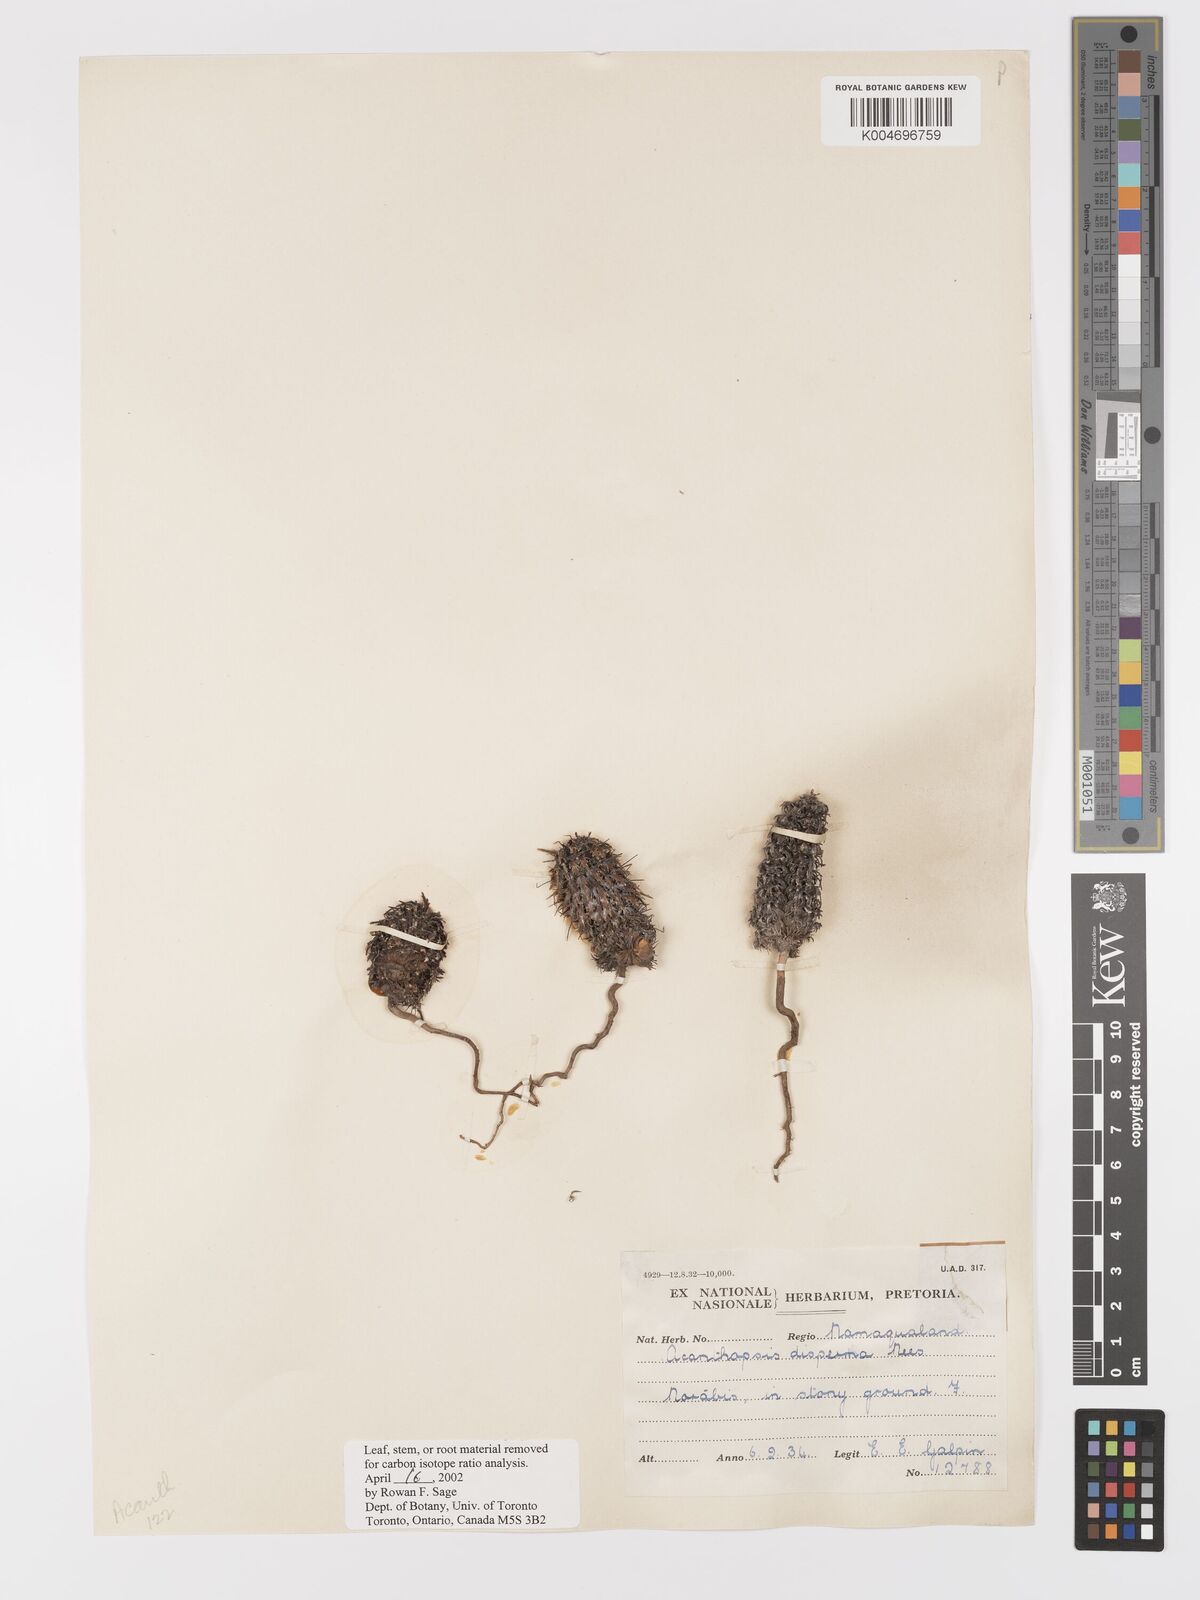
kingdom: Plantae
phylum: Tracheophyta
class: Magnoliopsida
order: Lamiales
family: Acanthaceae
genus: Acanthopsis
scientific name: Acanthopsis disperma
